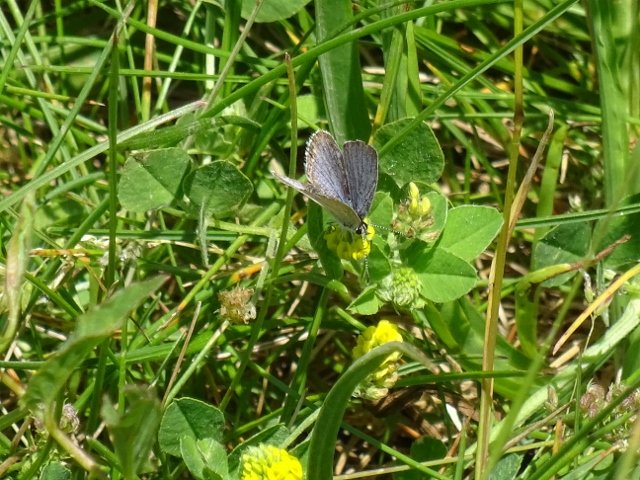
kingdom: Animalia
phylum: Arthropoda
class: Insecta
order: Lepidoptera
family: Lycaenidae
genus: Elkalyce
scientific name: Elkalyce comyntas
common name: Eastern Tailed-Blue
